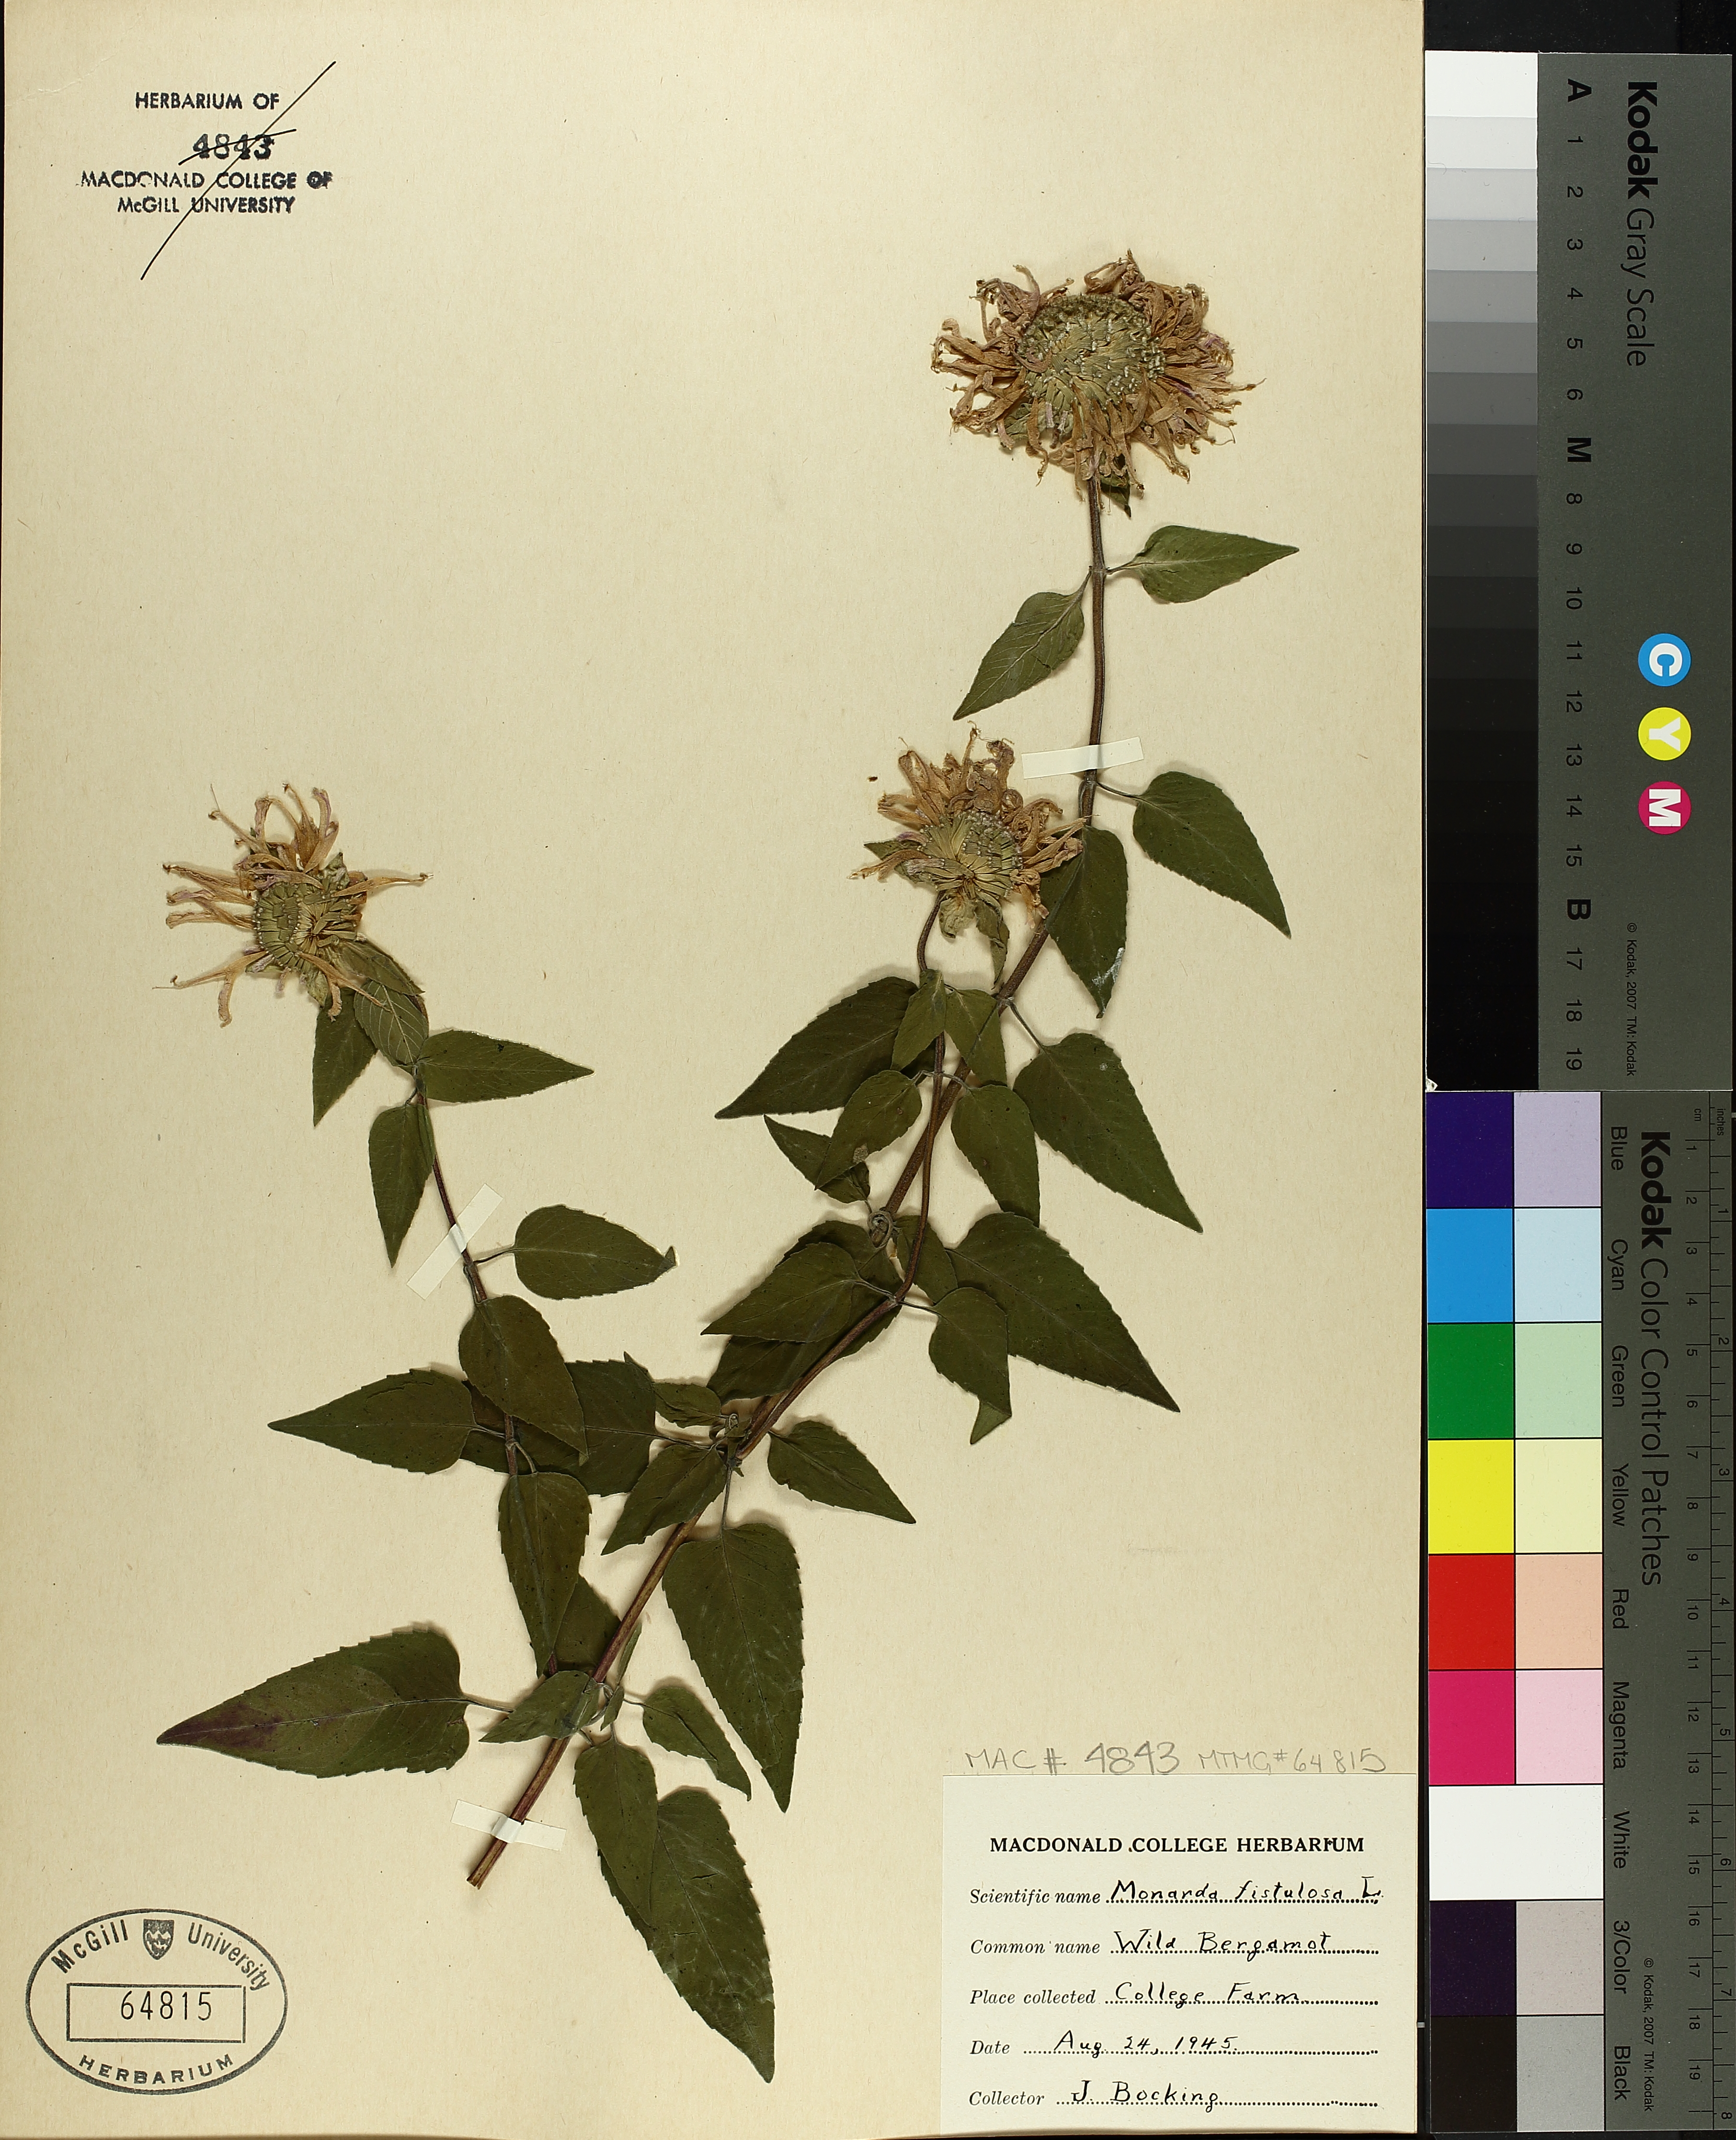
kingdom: Plantae
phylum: Tracheophyta
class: Magnoliopsida
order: Lamiales
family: Lamiaceae
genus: Monarda
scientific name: Monarda fistulosa
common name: Purple beebalm
